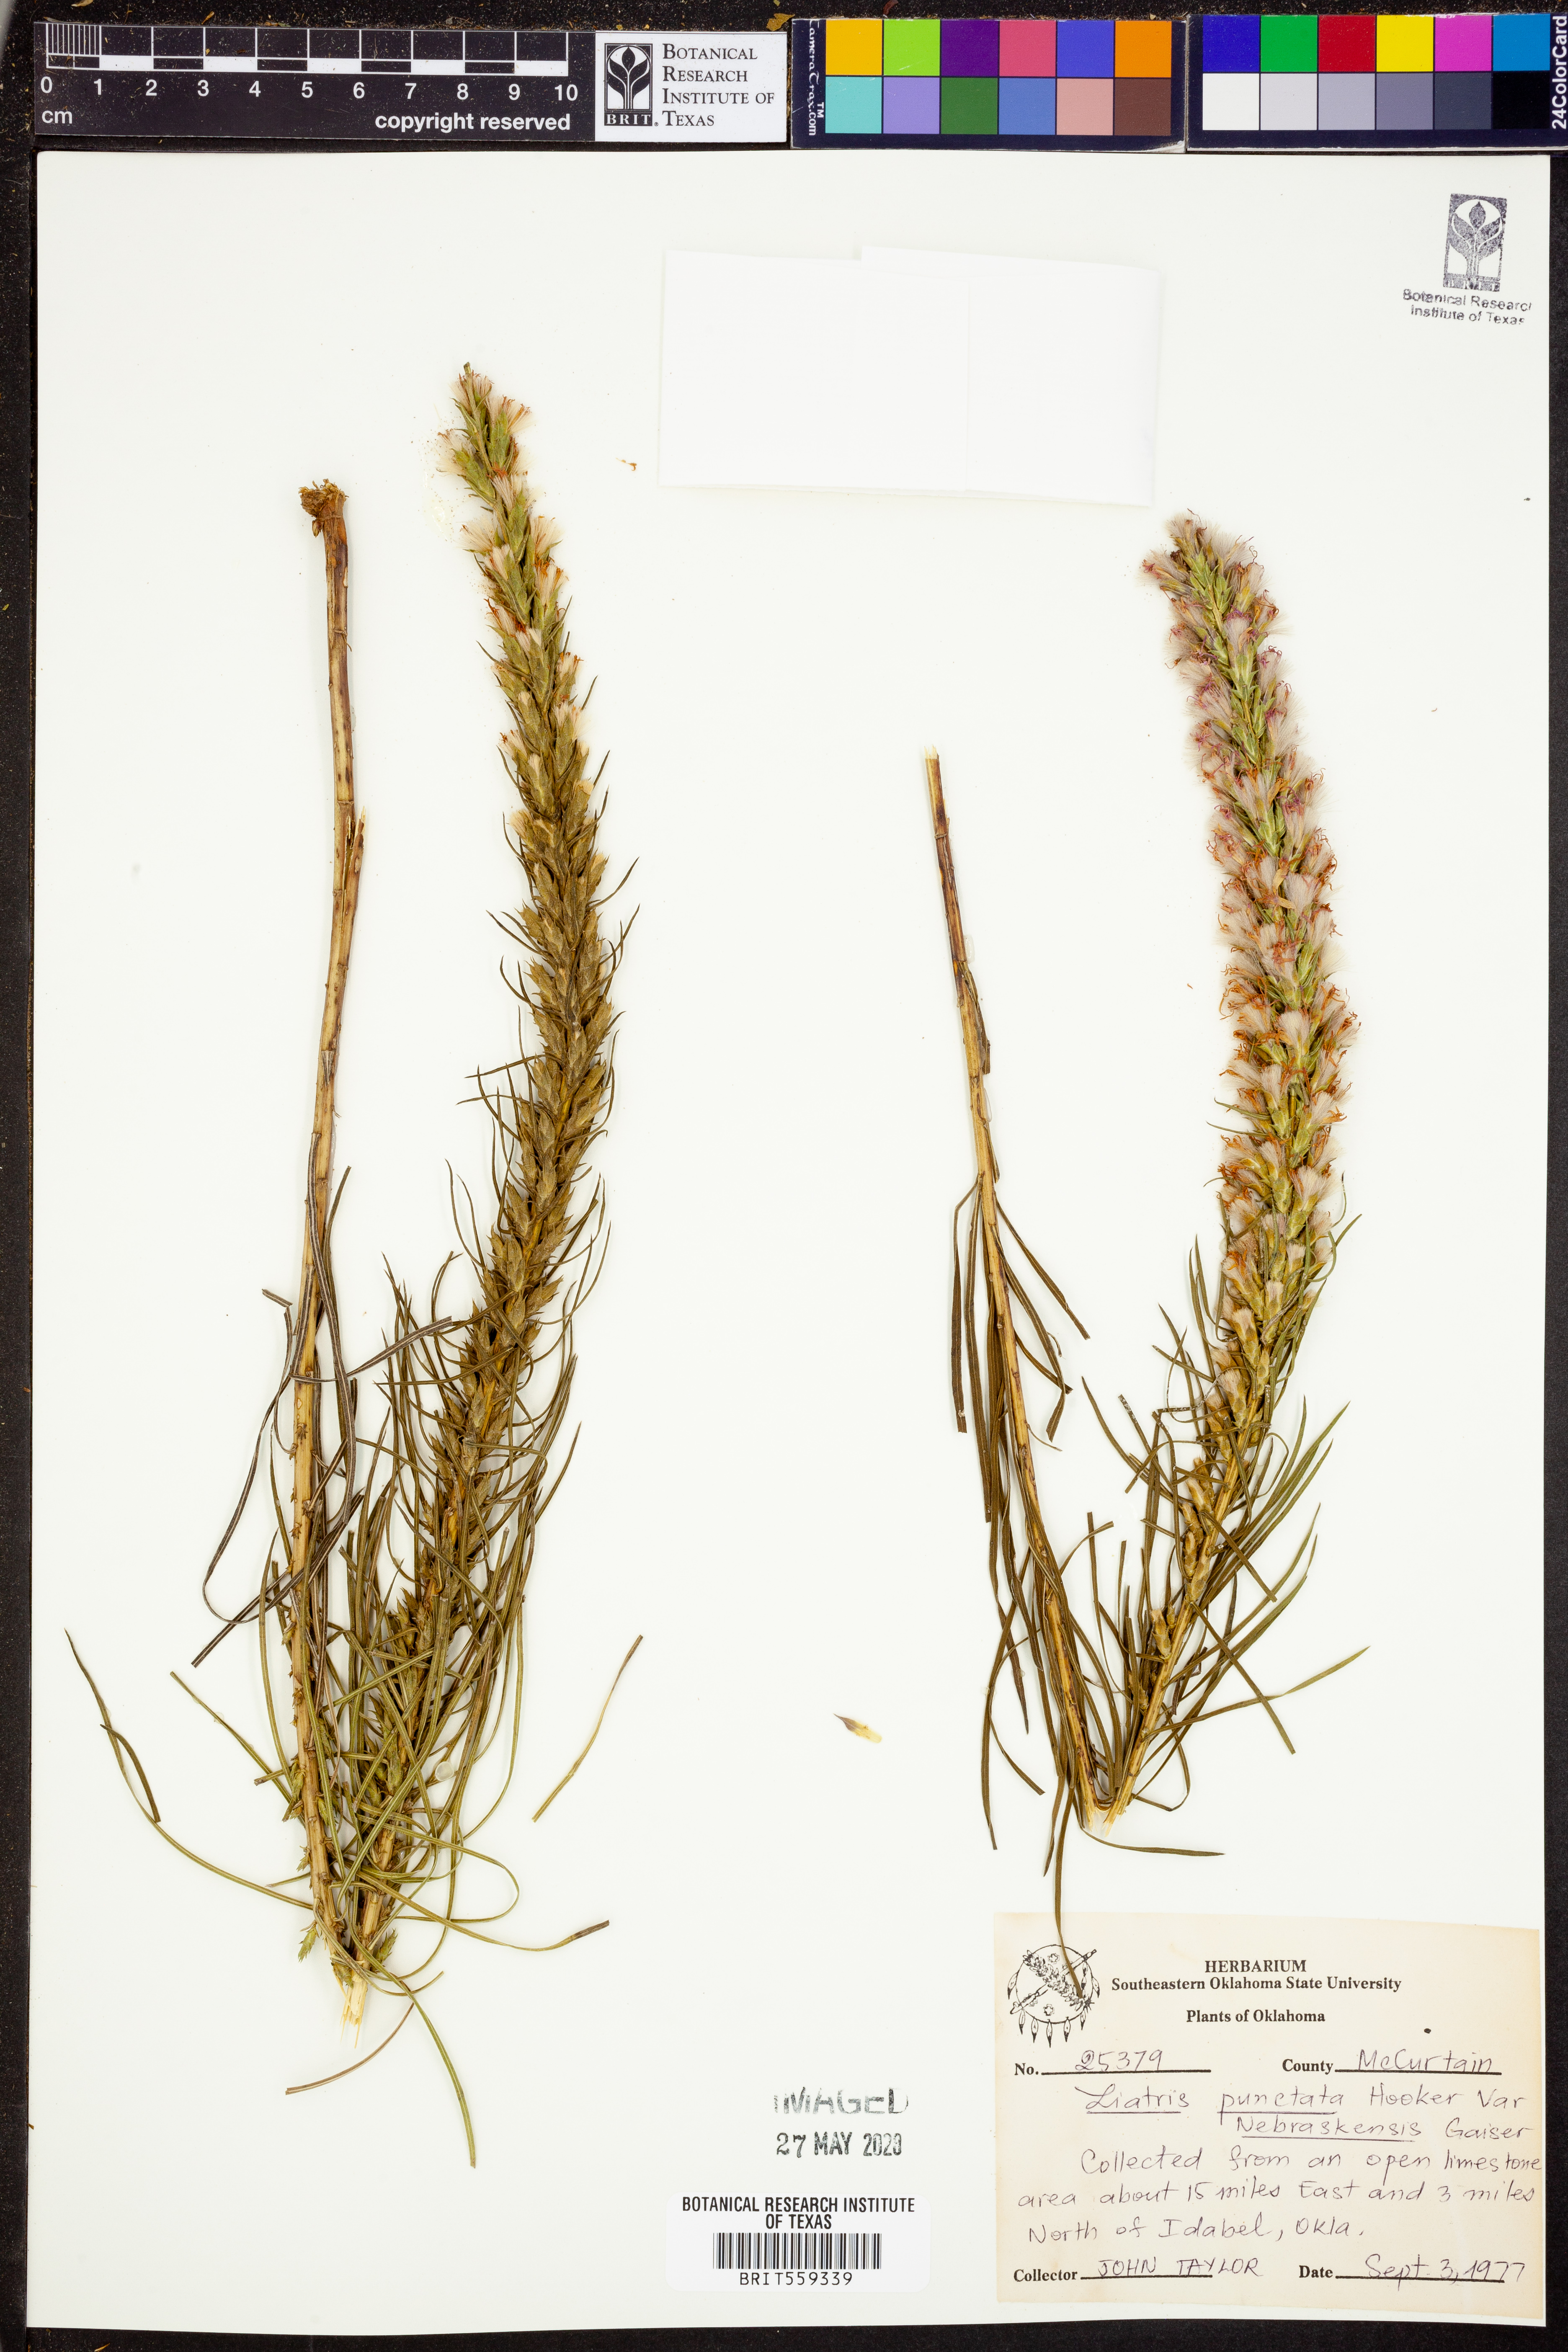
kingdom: Plantae
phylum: Tracheophyta
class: Magnoliopsida
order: Asterales
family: Asteraceae
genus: Liatris
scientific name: Liatris punctata
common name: Dotted gayfeather
